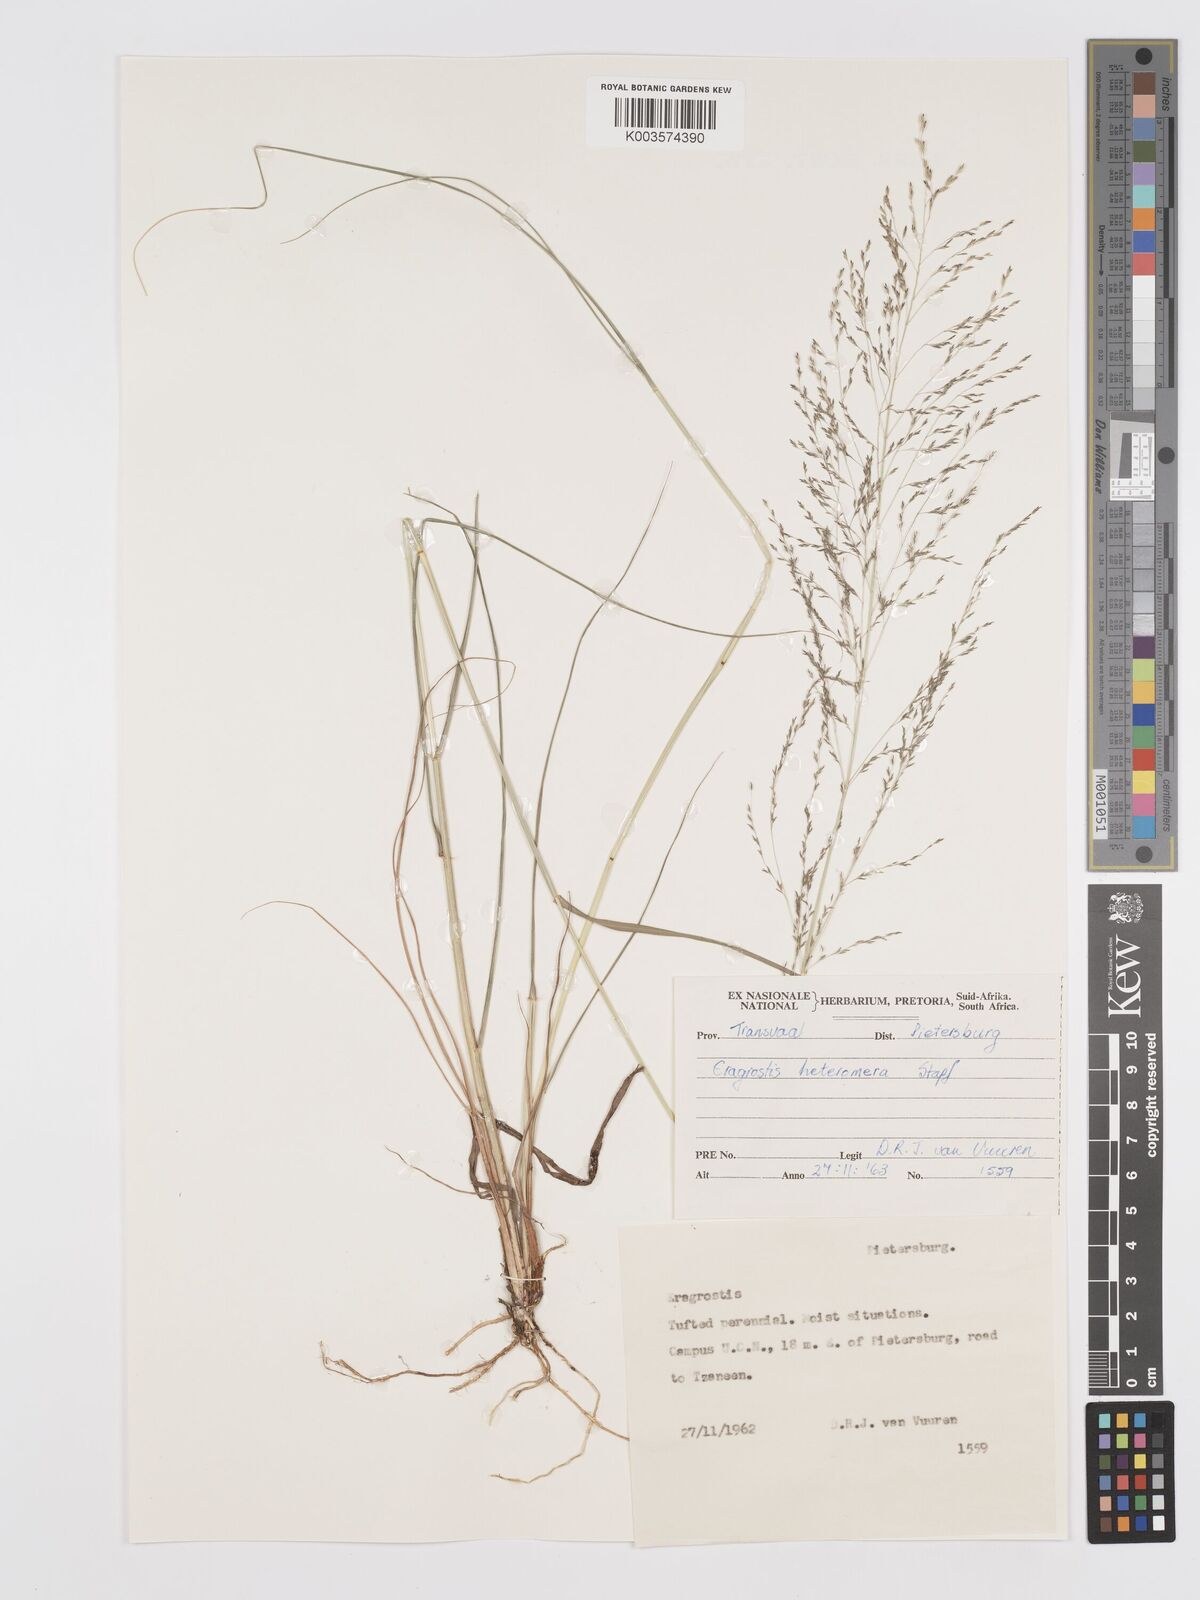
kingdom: Plantae
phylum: Tracheophyta
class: Liliopsida
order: Poales
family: Poaceae
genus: Eragrostis
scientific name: Eragrostis heteromera
